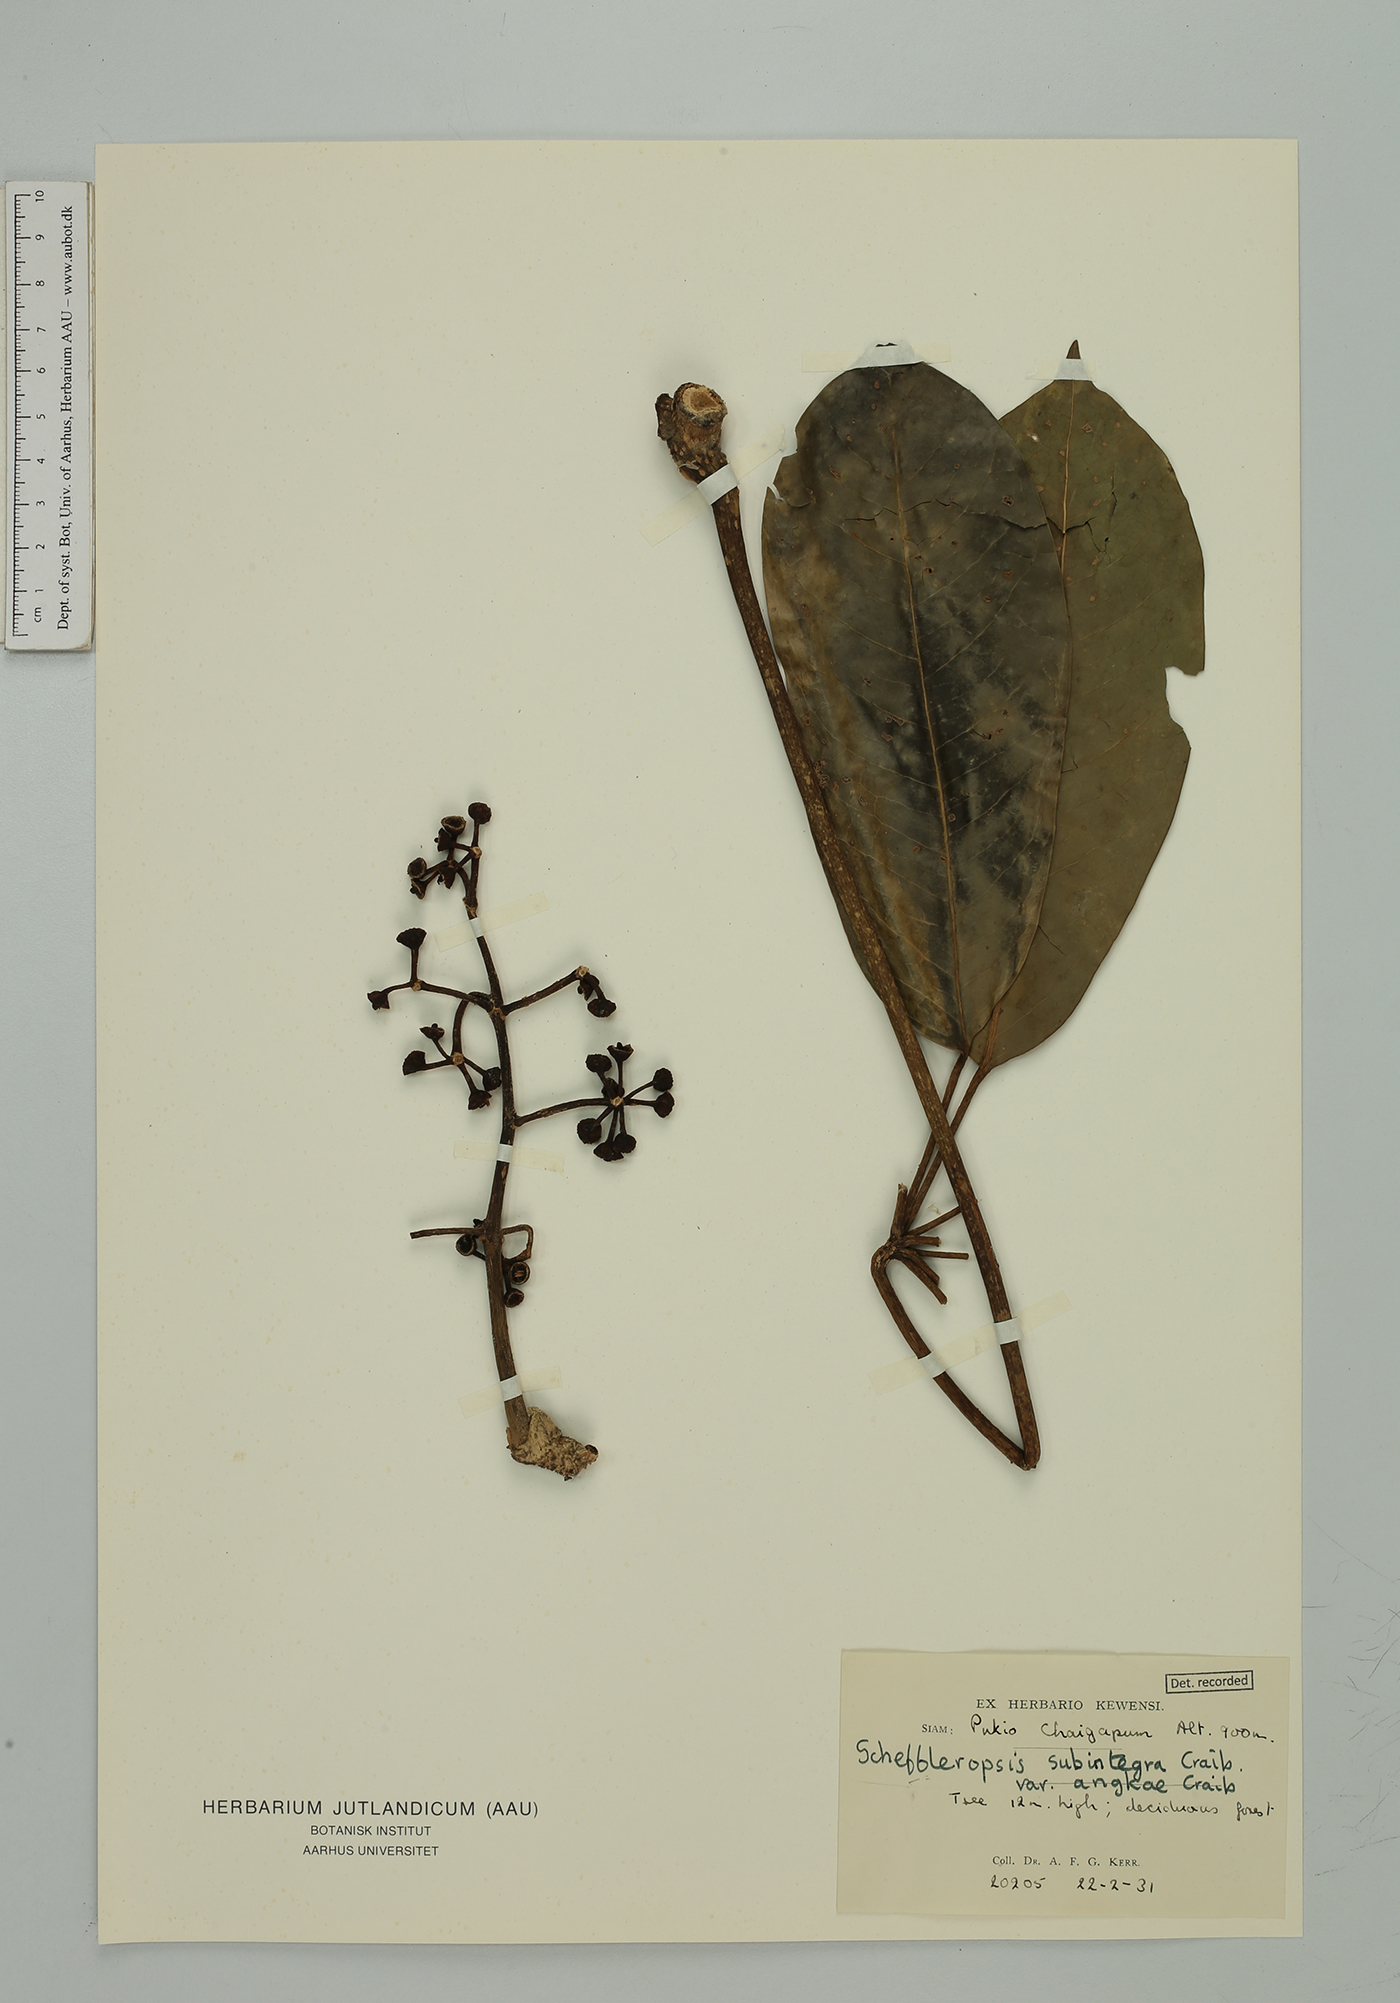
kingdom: Plantae
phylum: Tracheophyta
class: Magnoliopsida
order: Apiales
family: Araliaceae
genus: Heptapleurum
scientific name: Heptapleurum subintegrum
